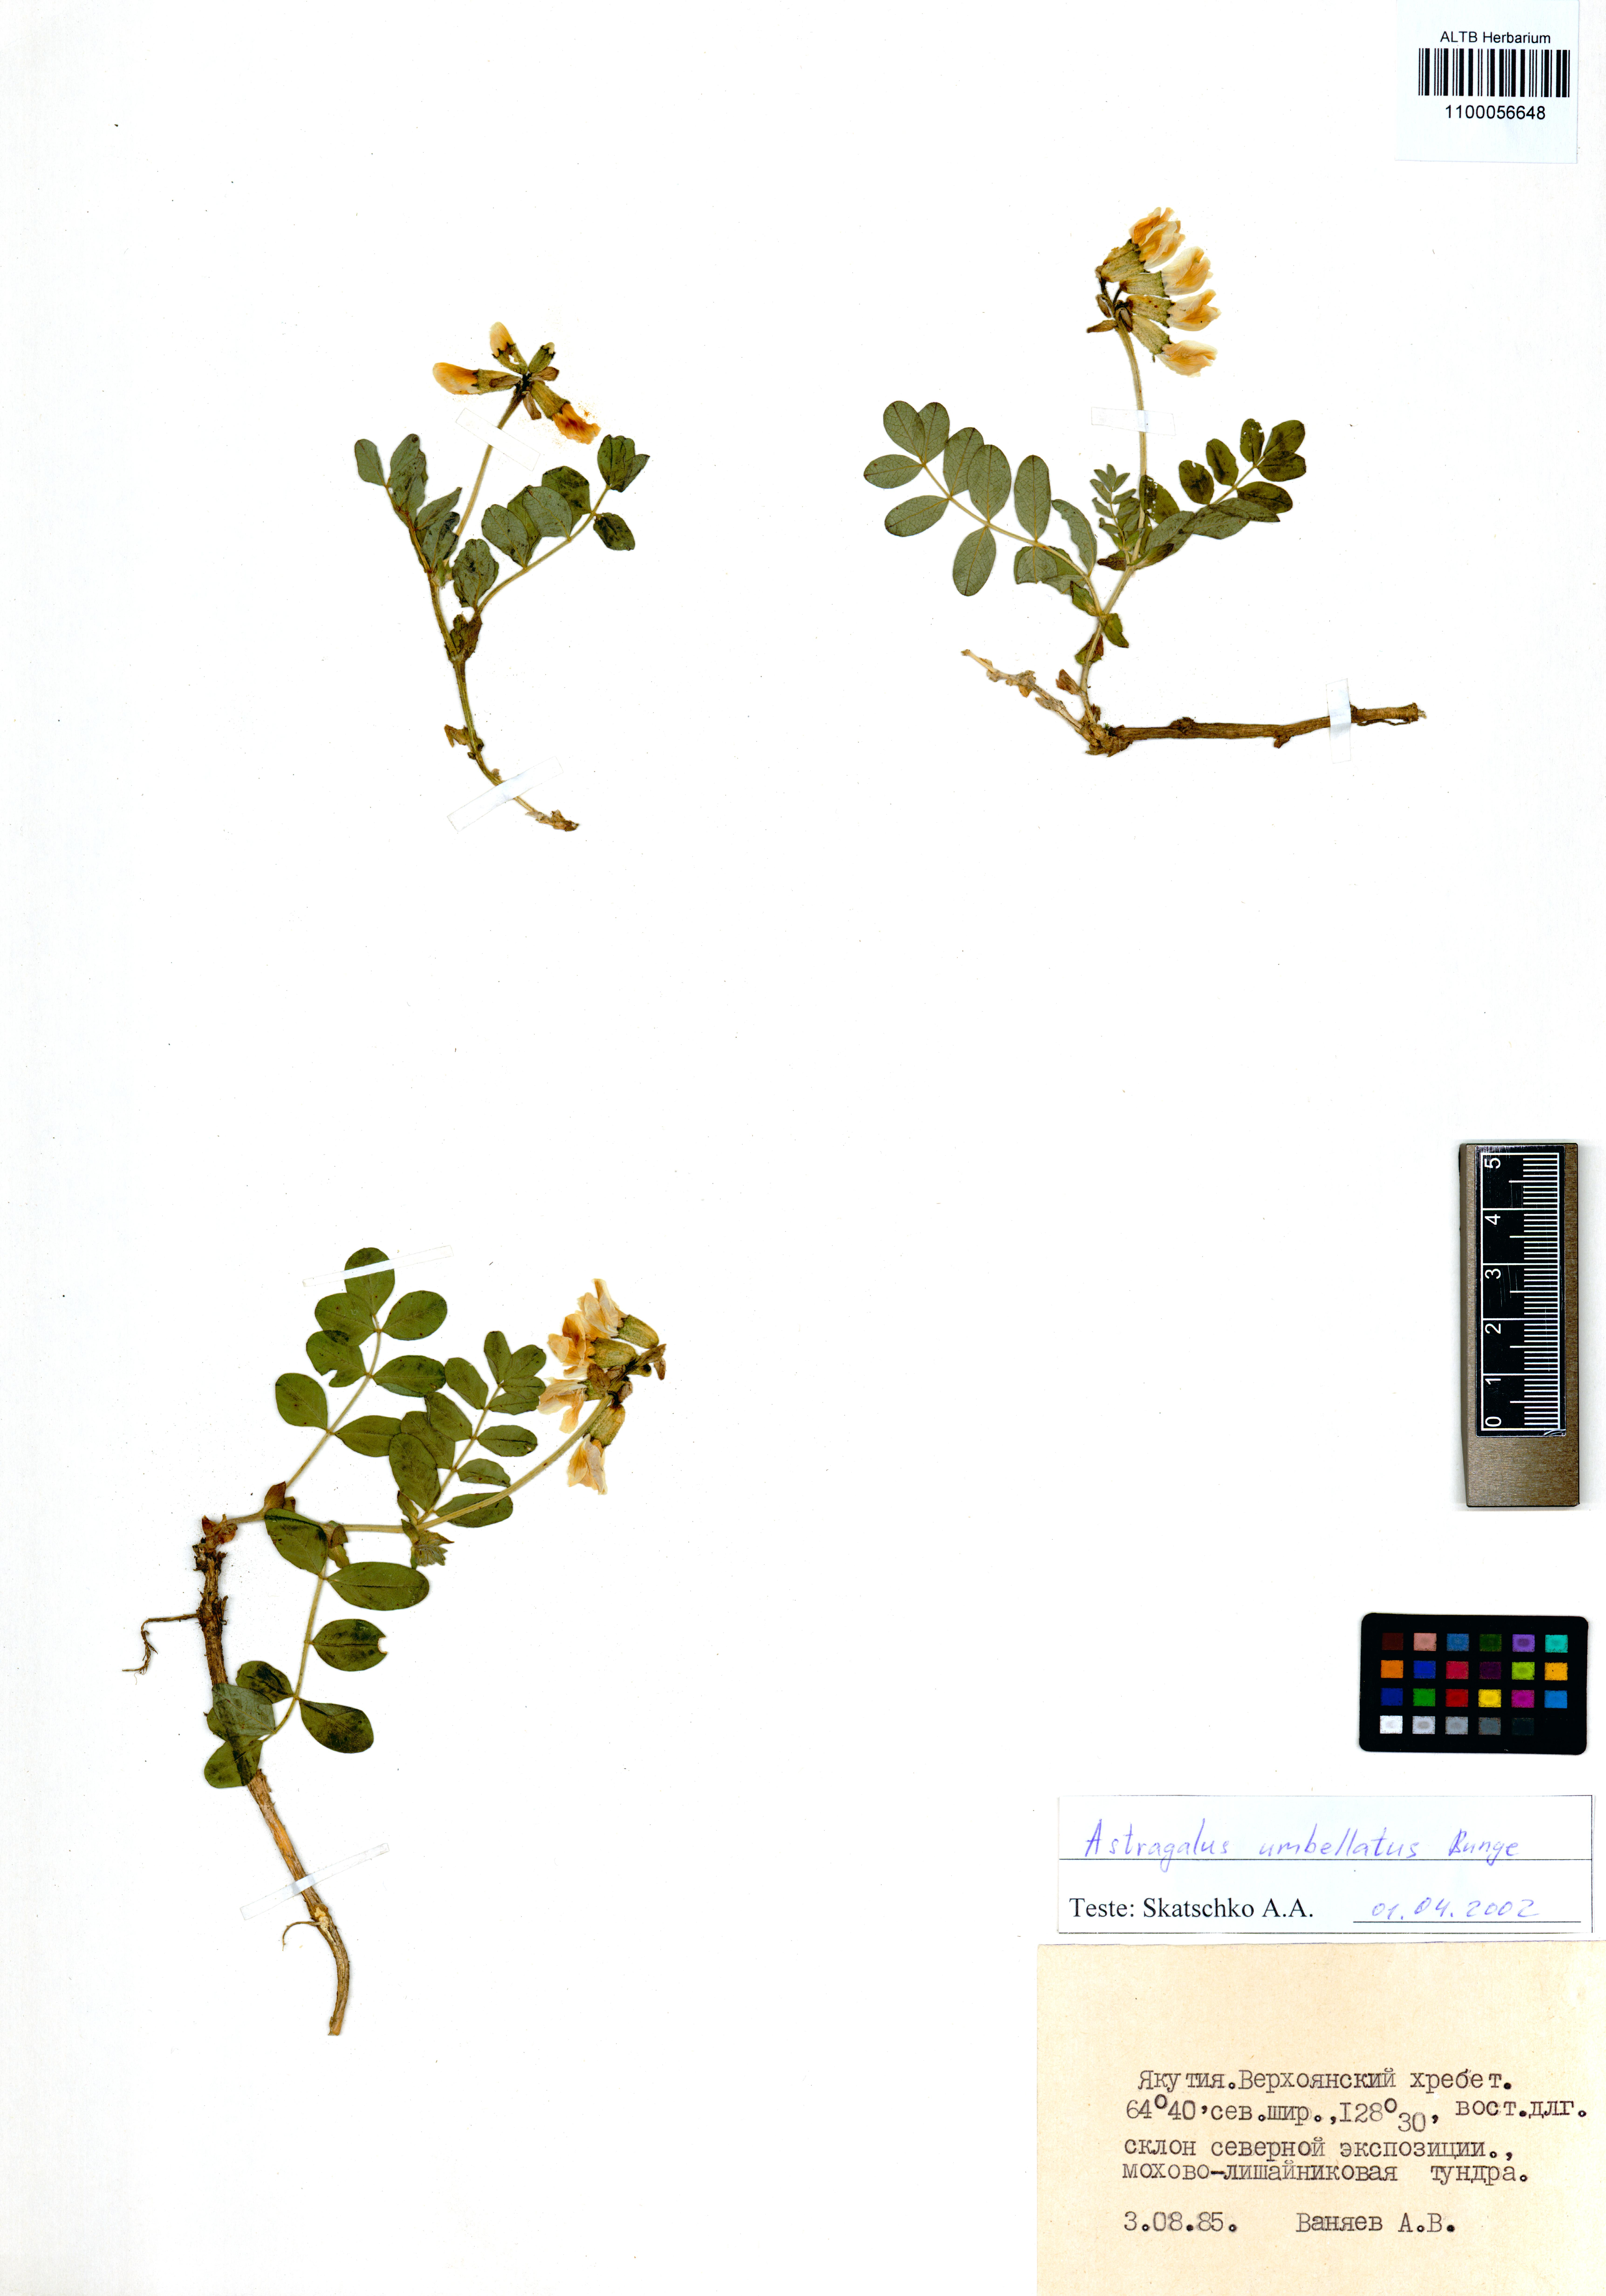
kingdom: Plantae
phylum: Tracheophyta
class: Magnoliopsida
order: Fabales
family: Fabaceae
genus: Astragalus
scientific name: Astragalus umbellatus
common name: Tundra milk-vetch
